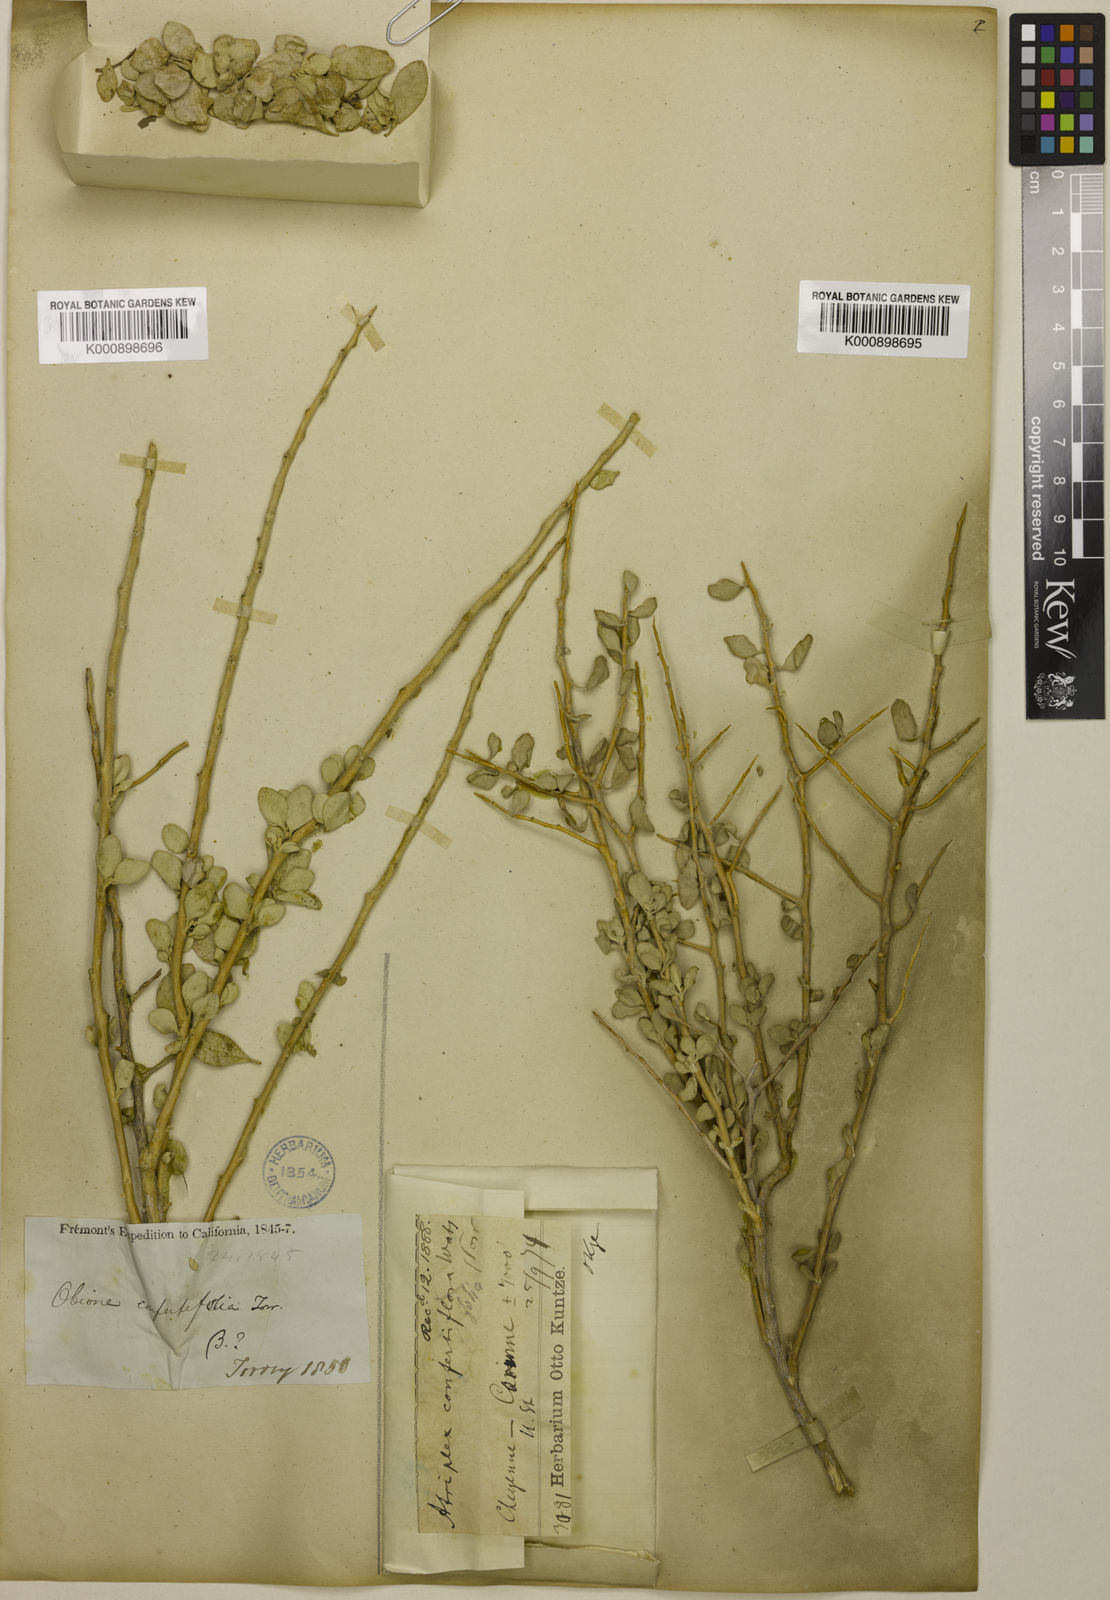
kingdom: Plantae
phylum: Tracheophyta
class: Magnoliopsida
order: Caryophyllales
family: Amaranthaceae
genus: Atriplex
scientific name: Atriplex
